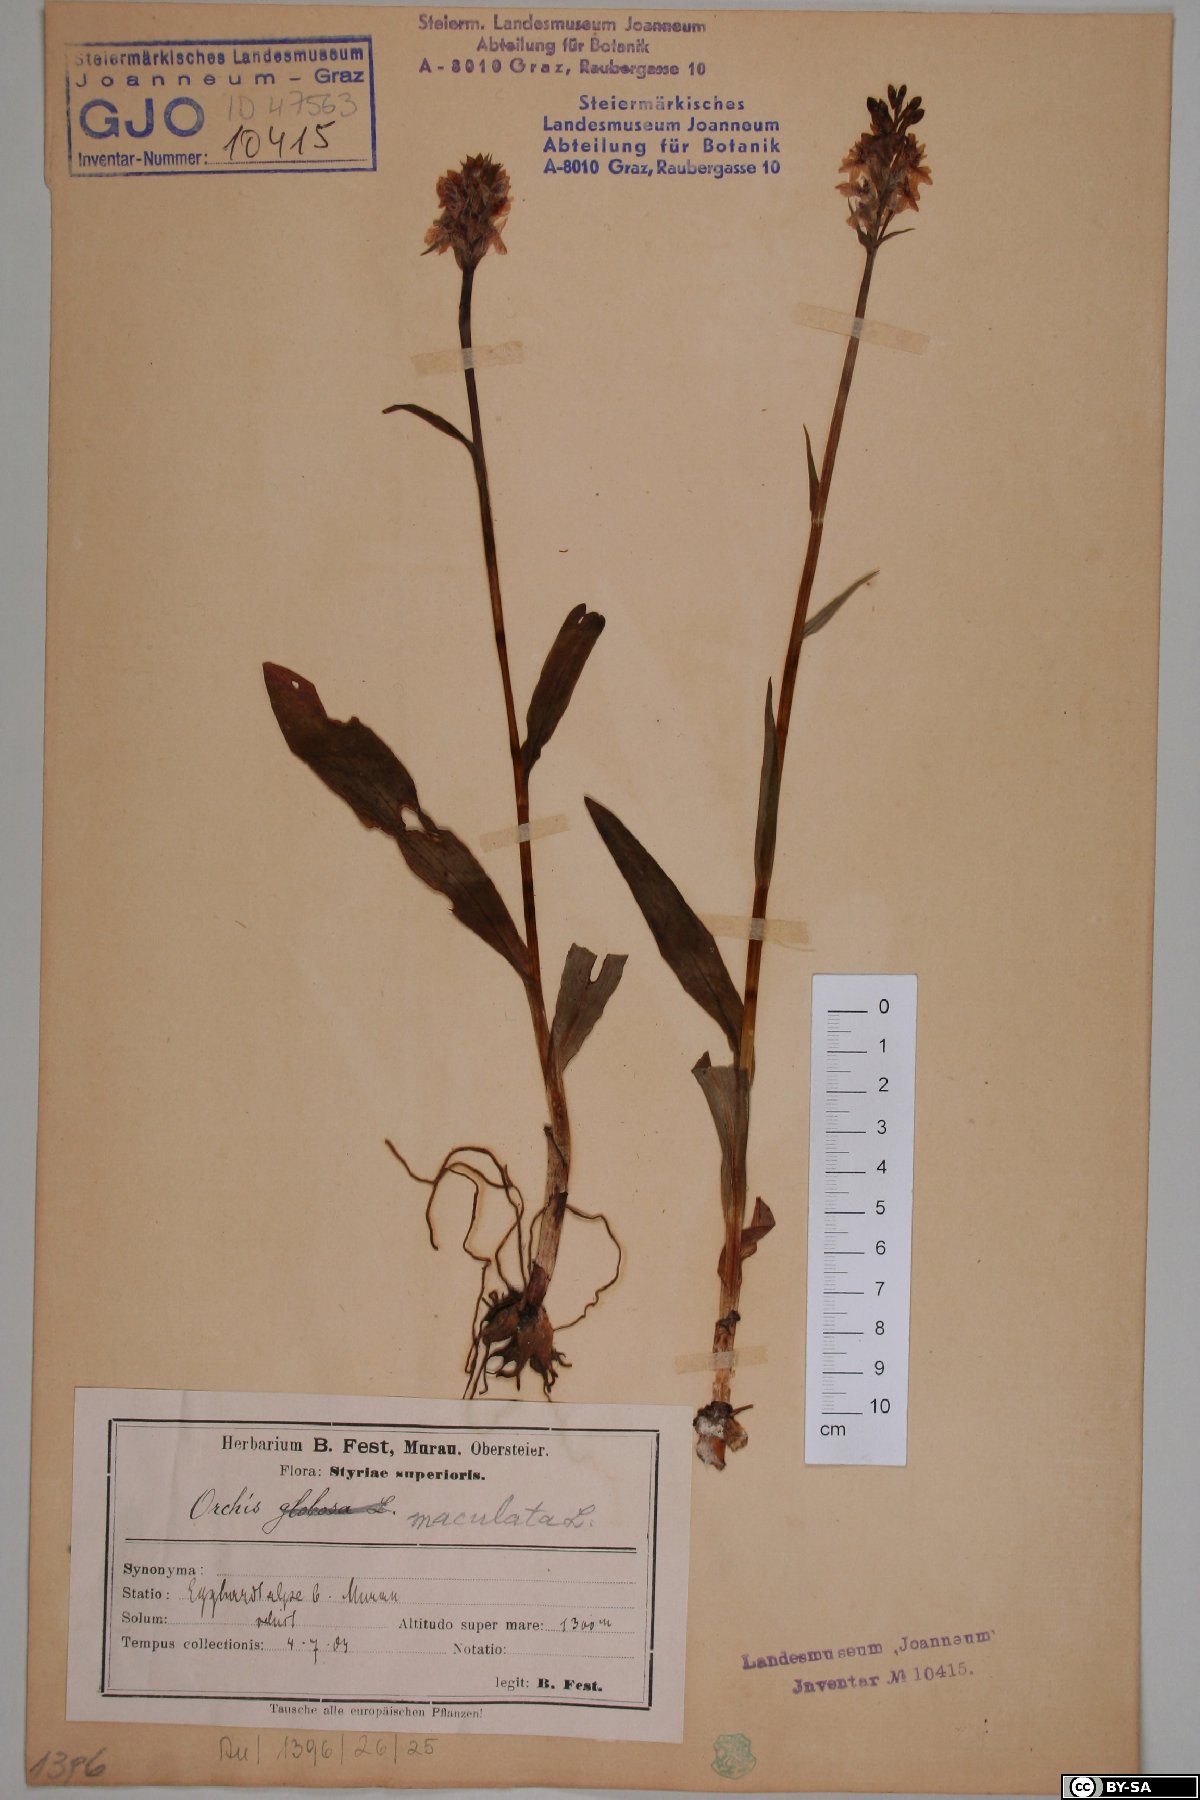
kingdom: Plantae
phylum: Tracheophyta
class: Liliopsida
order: Asparagales
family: Orchidaceae
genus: Dactylorhiza
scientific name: Dactylorhiza maculata
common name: Heath spotted-orchid
